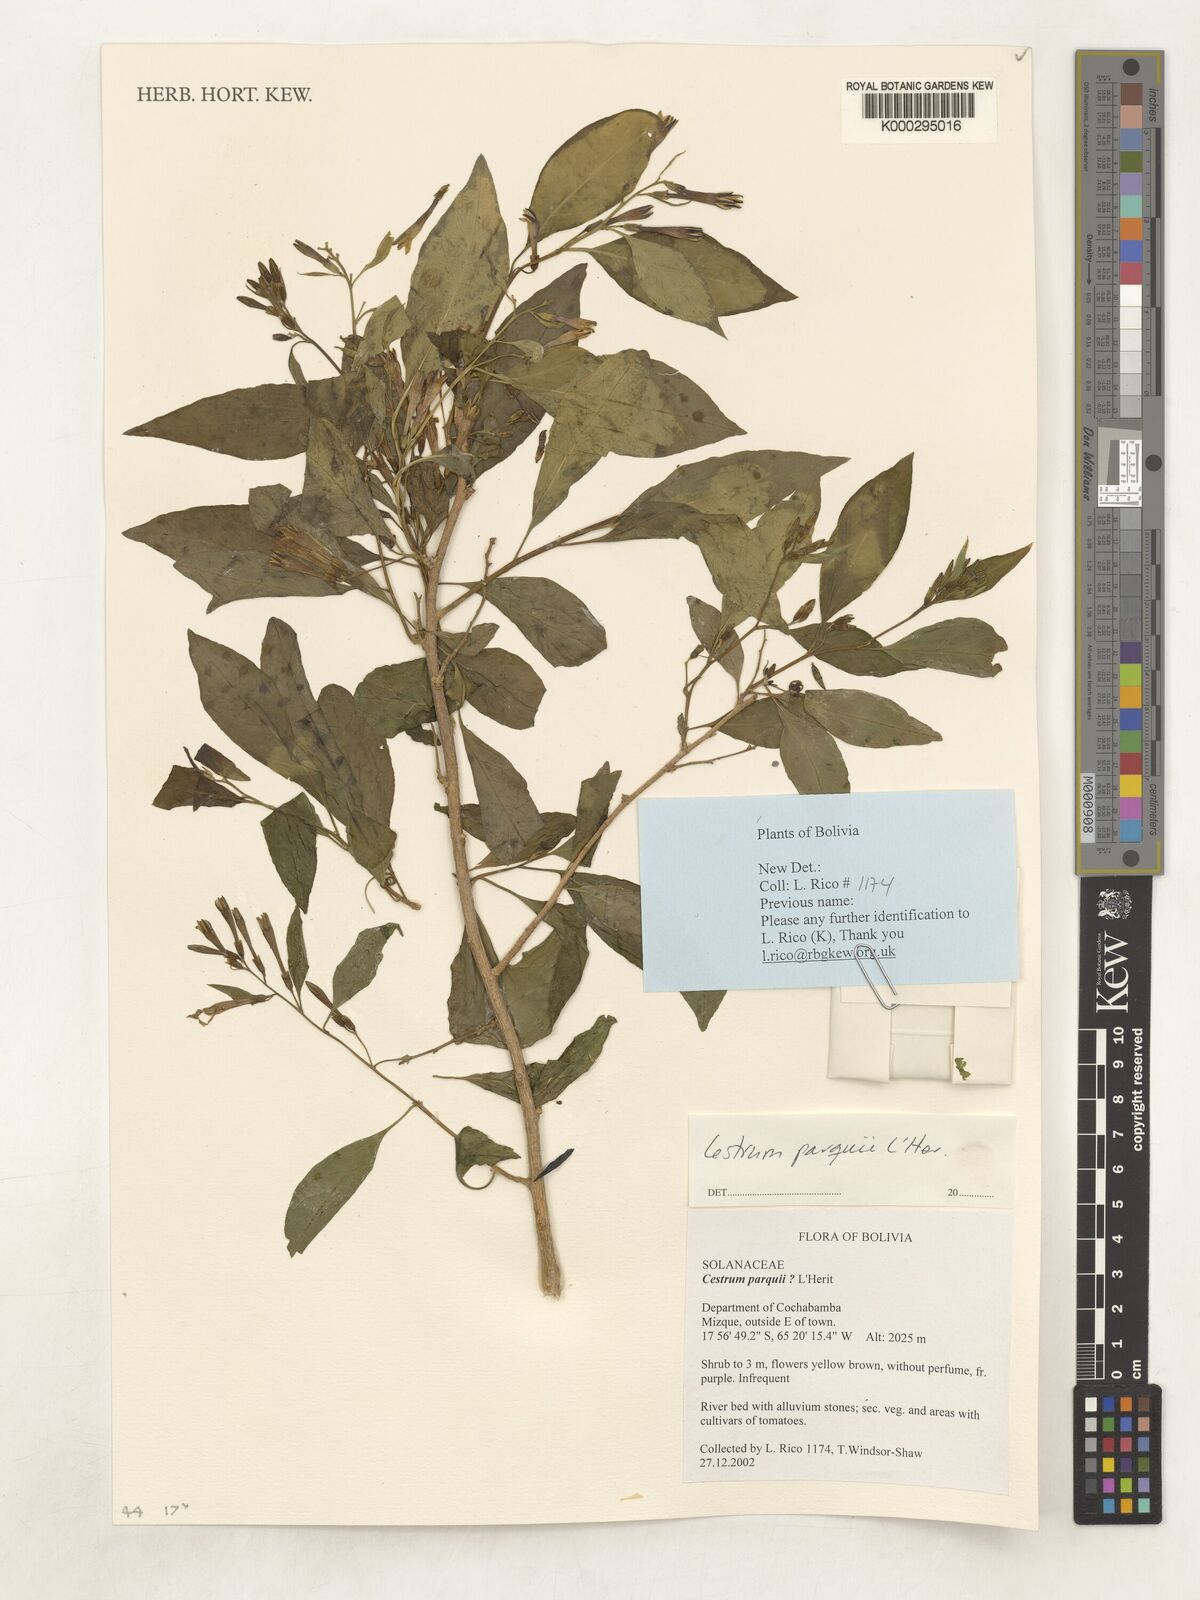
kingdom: Plantae
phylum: Tracheophyta
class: Magnoliopsida
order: Solanales
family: Solanaceae
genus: Cestrum
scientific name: Cestrum parqui
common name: Chilean cestrum
